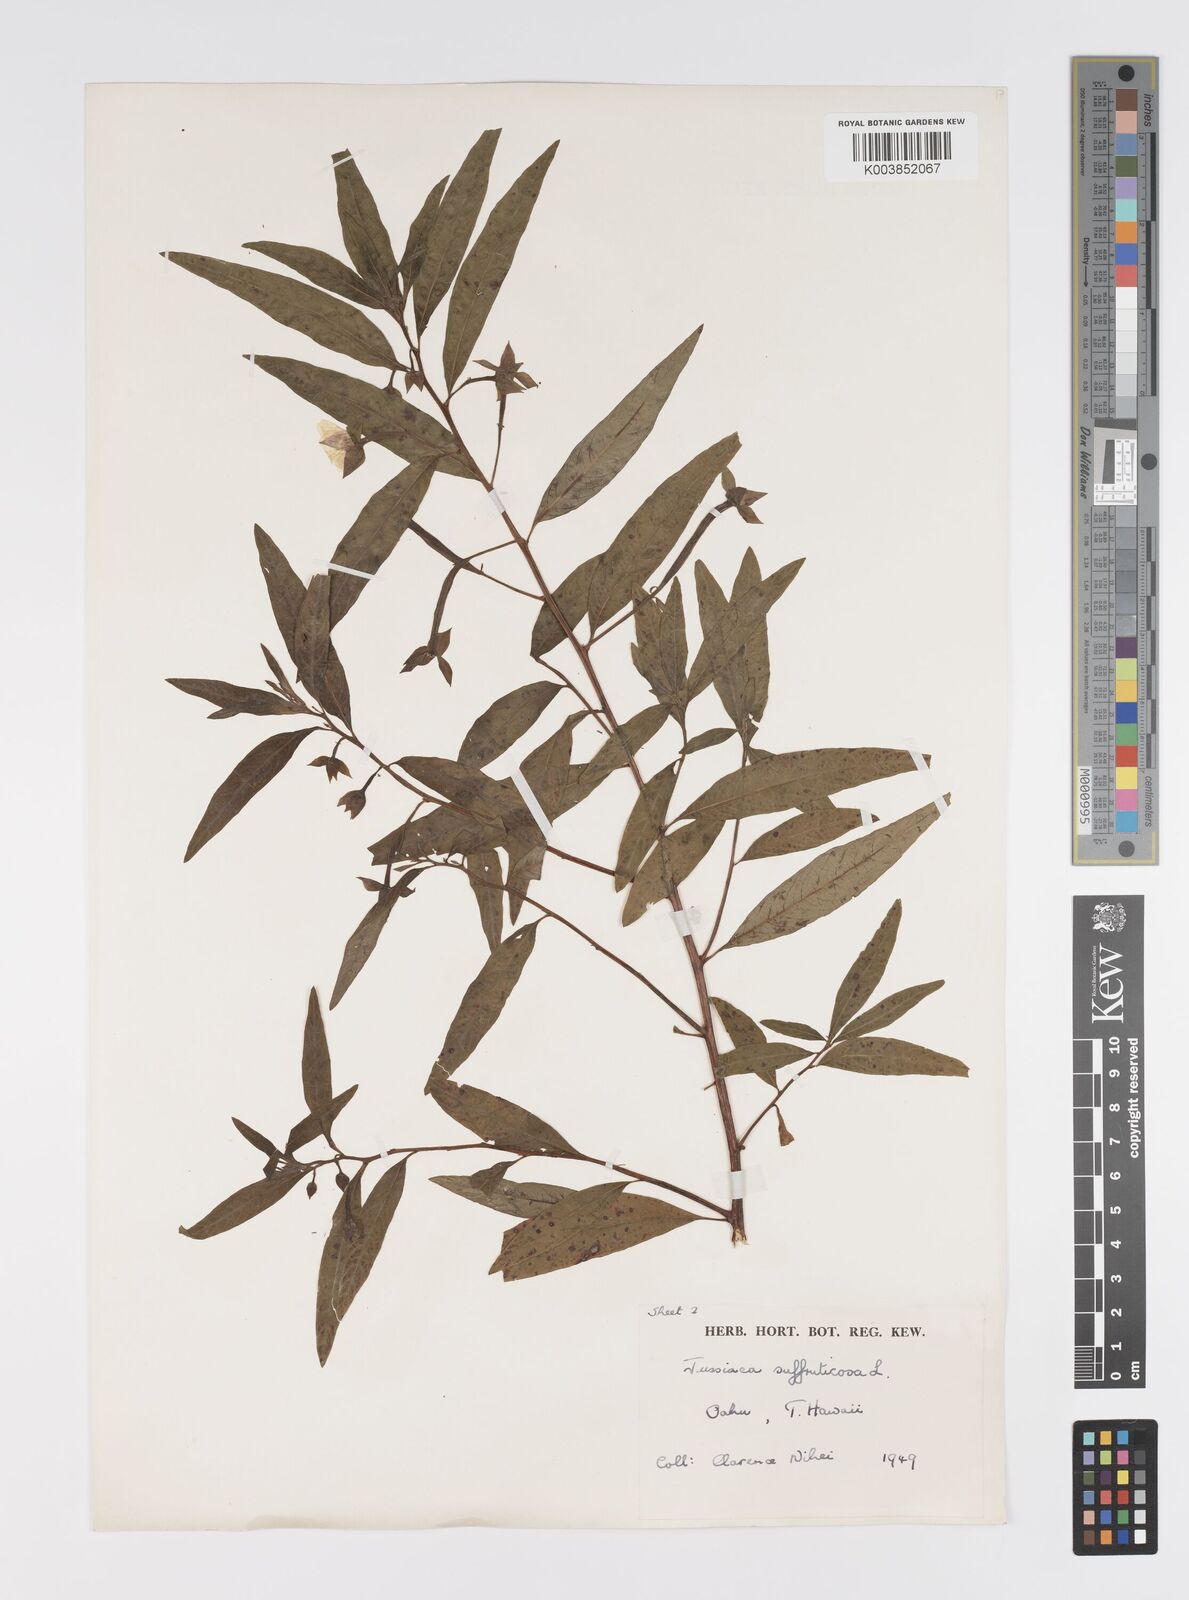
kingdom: Plantae
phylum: Tracheophyta
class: Magnoliopsida
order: Myrtales
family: Onagraceae
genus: Ludwigia
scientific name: Ludwigia octovalvis
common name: Water-primrose
